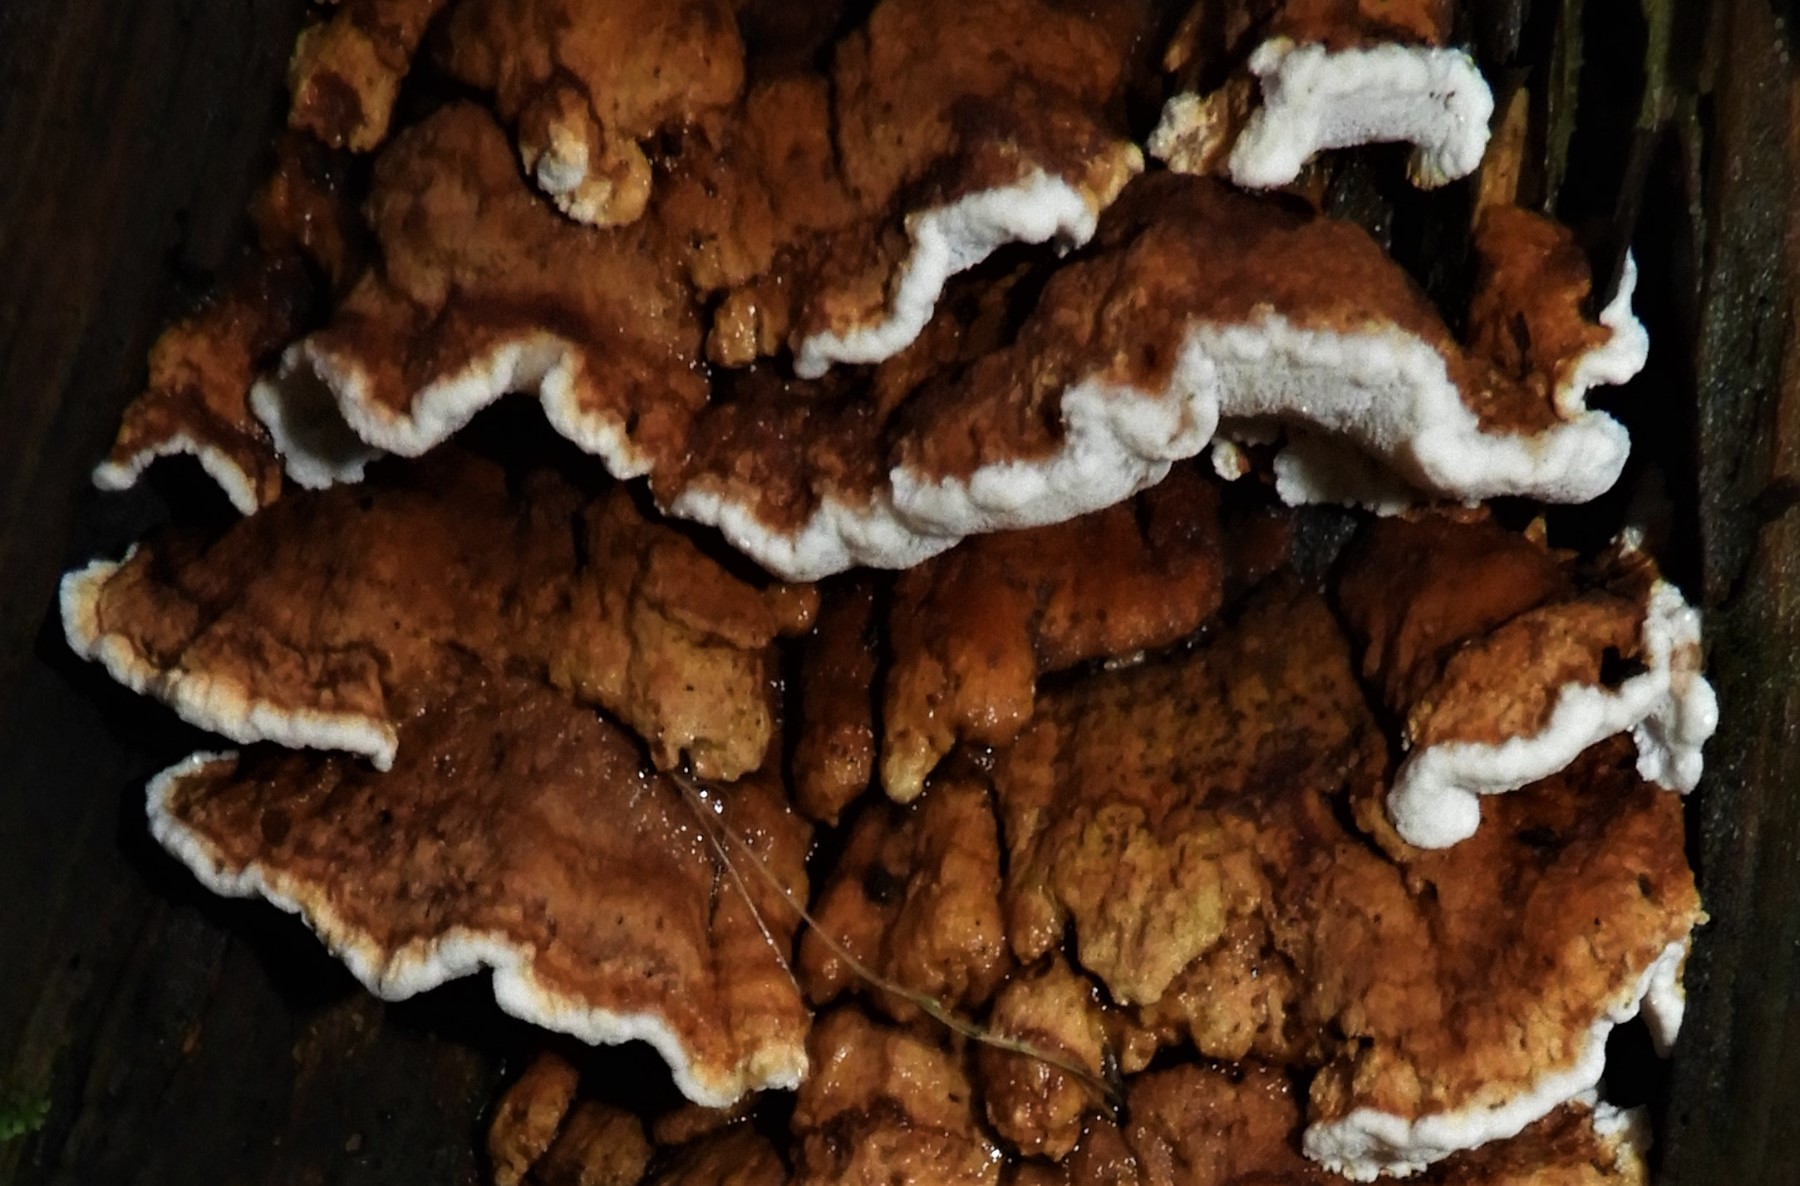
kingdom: Fungi
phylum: Basidiomycota
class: Agaricomycetes
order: Polyporales
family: Fomitopsidaceae
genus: Neoantrodia
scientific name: Neoantrodia serialis
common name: række-sejporesvamp
